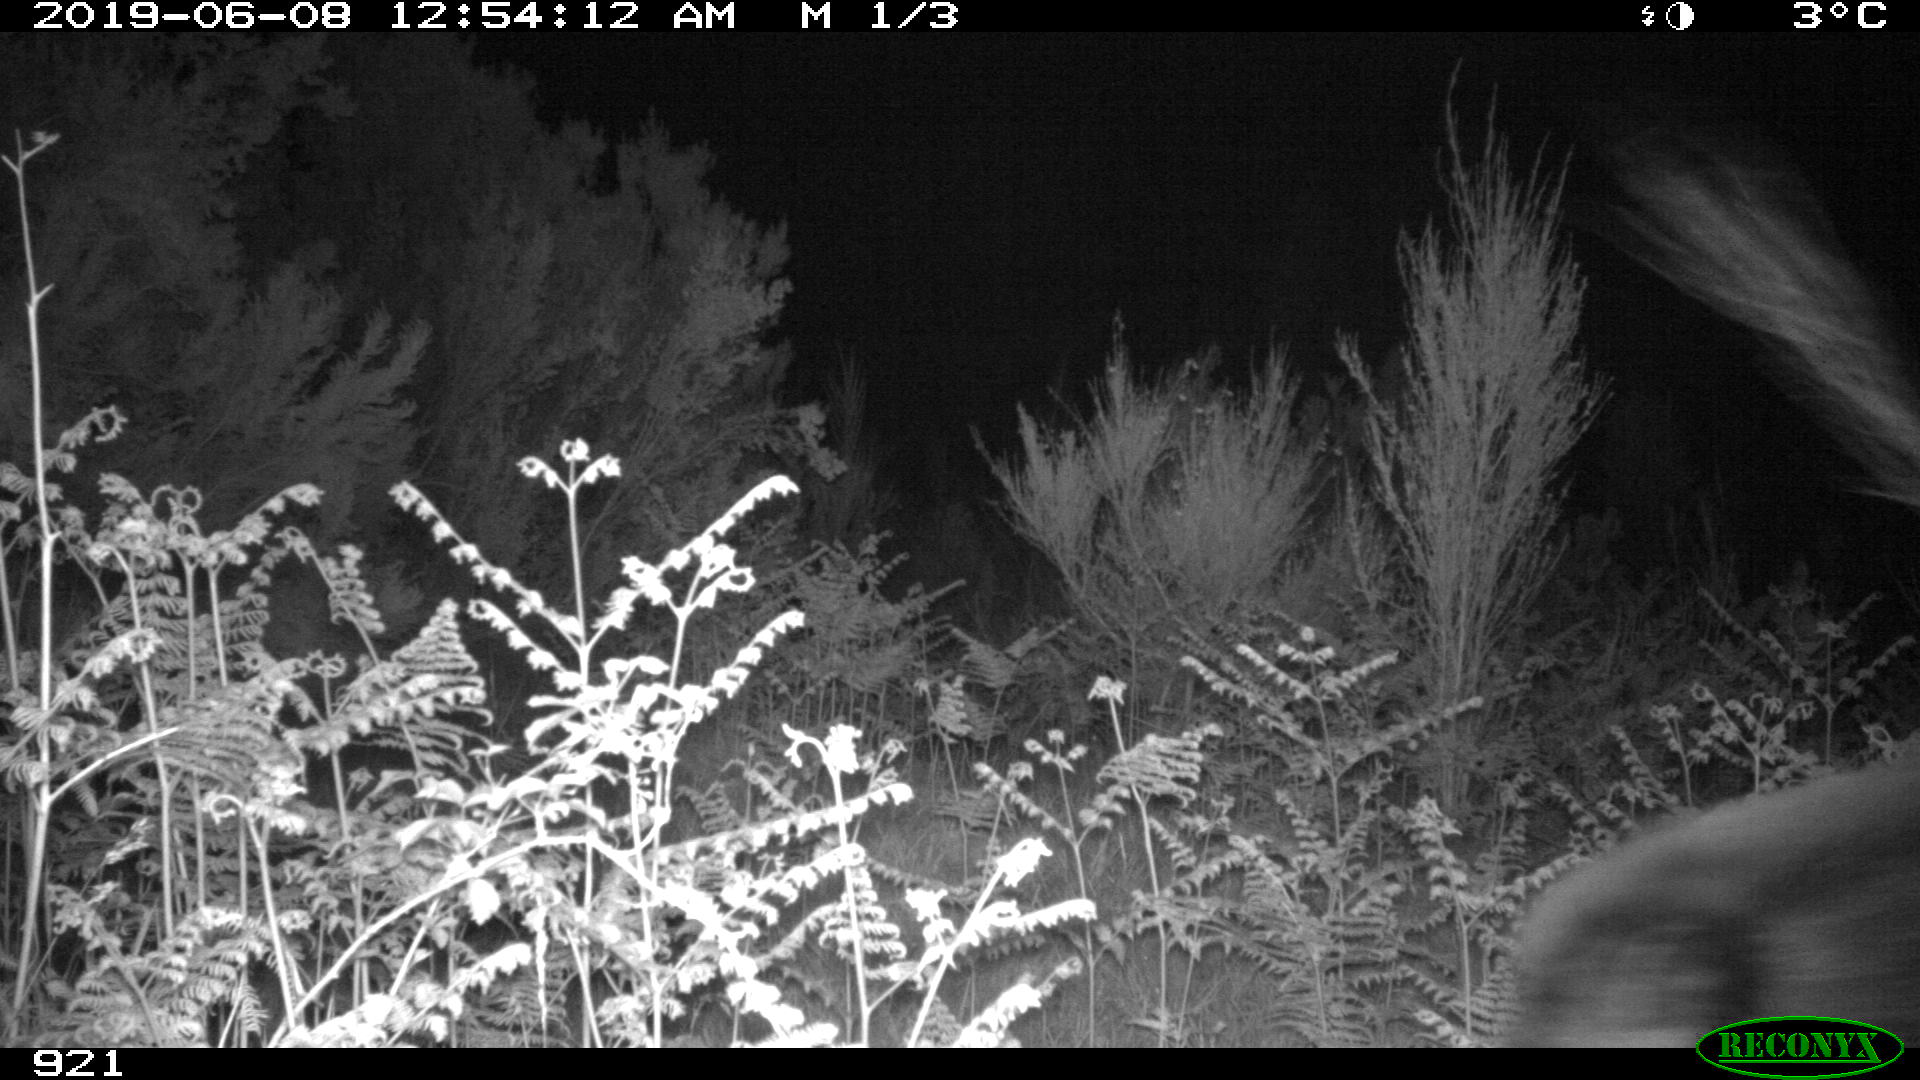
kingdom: Animalia
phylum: Chordata
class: Mammalia
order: Artiodactyla
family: Suidae
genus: Sus
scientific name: Sus scrofa
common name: Wild boar
